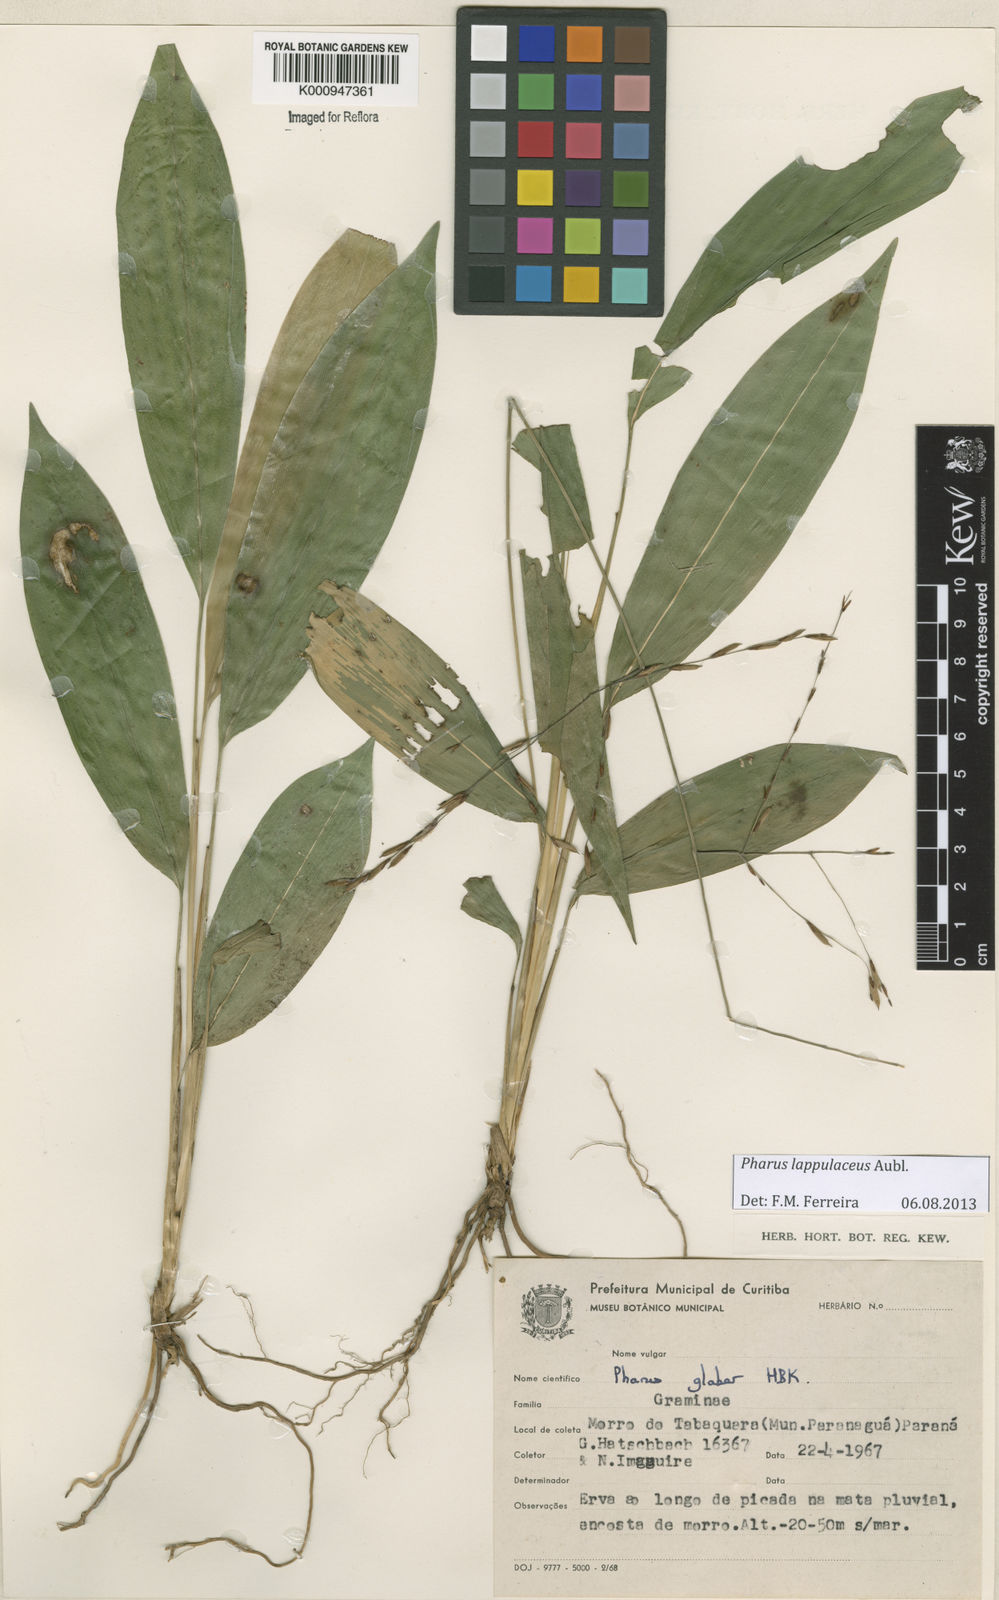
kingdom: Plantae
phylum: Tracheophyta
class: Liliopsida
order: Poales
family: Poaceae
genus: Pharus
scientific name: Pharus lappulaceus
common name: Creeping leafstalk grass
